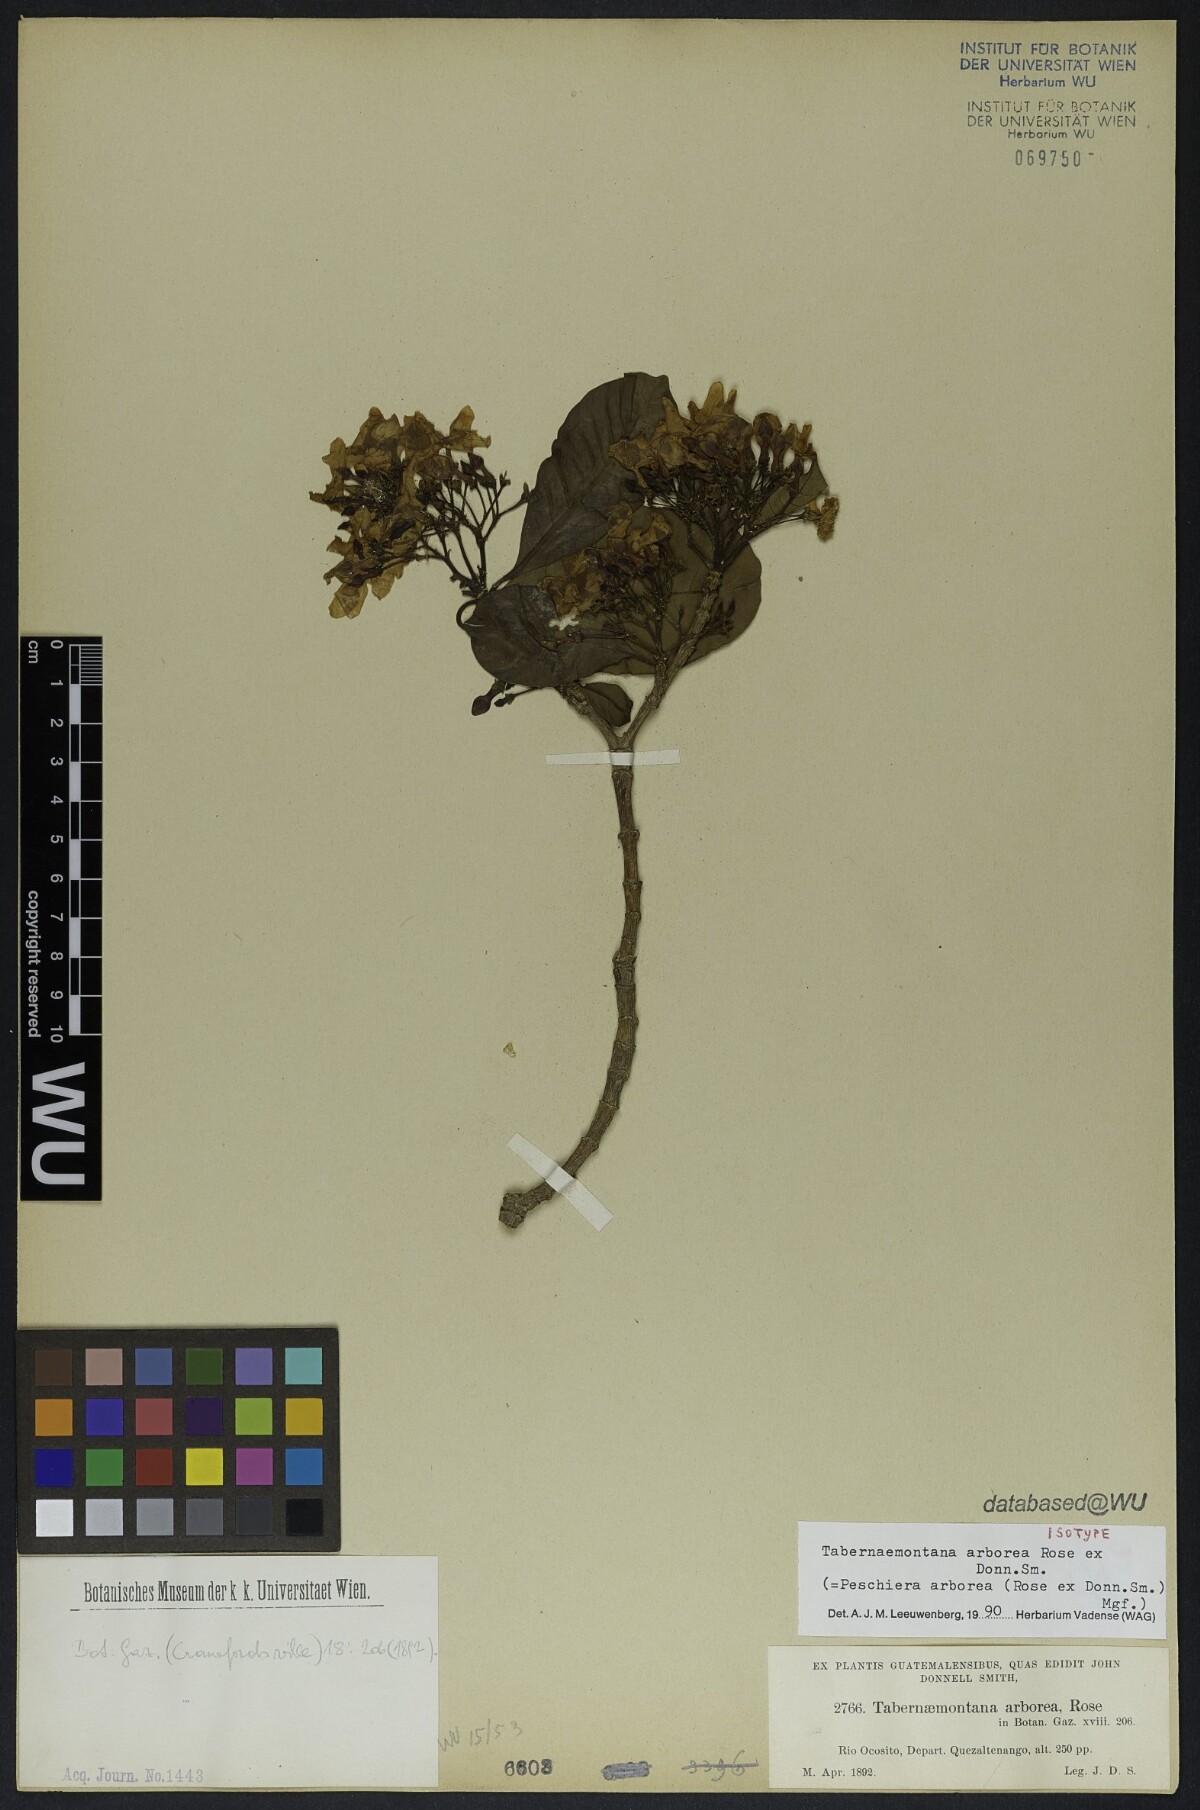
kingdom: Plantae
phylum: Tracheophyta
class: Magnoliopsida
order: Gentianales
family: Apocynaceae
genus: Tabernaemontana
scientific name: Tabernaemontana arborea
